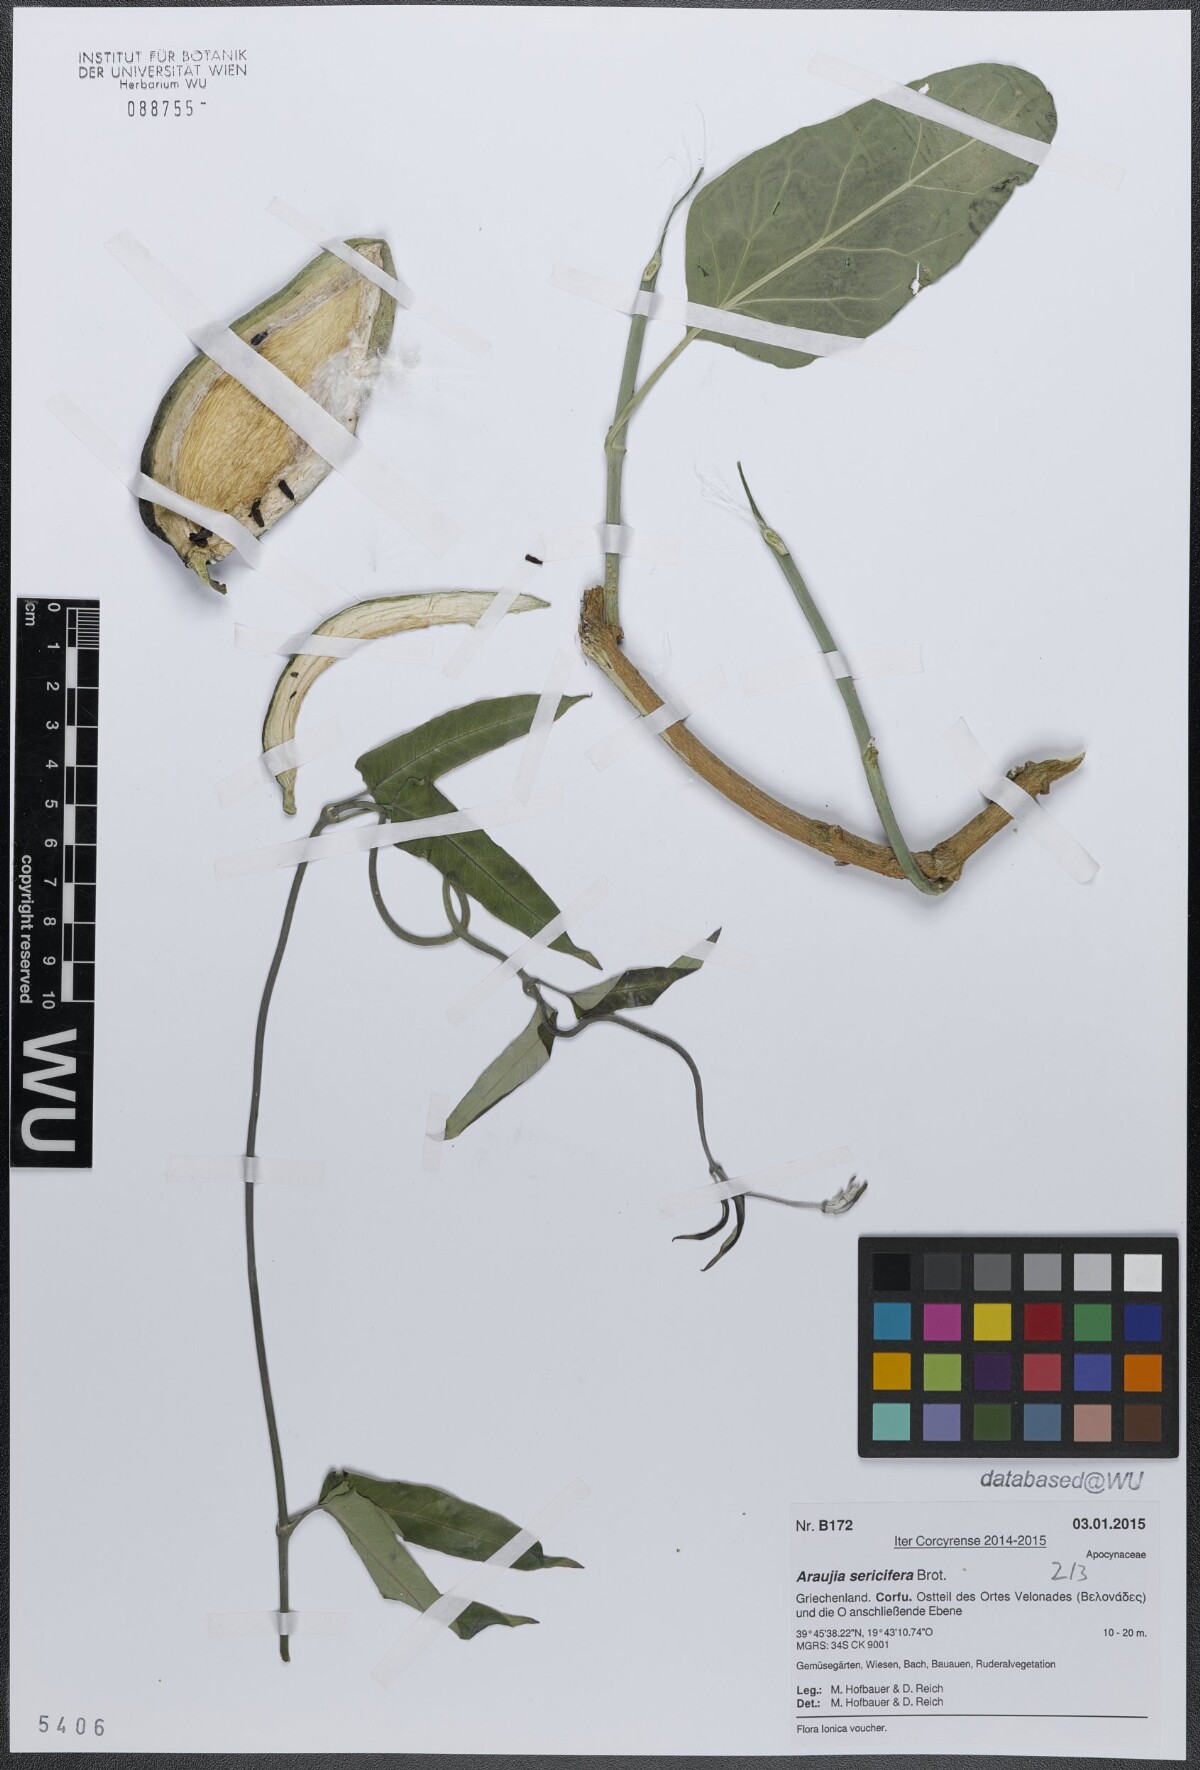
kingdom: Plantae
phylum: Tracheophyta
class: Magnoliopsida
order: Gentianales
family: Apocynaceae
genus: Araujia
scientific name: Araujia sericifera
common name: White bladderflower
